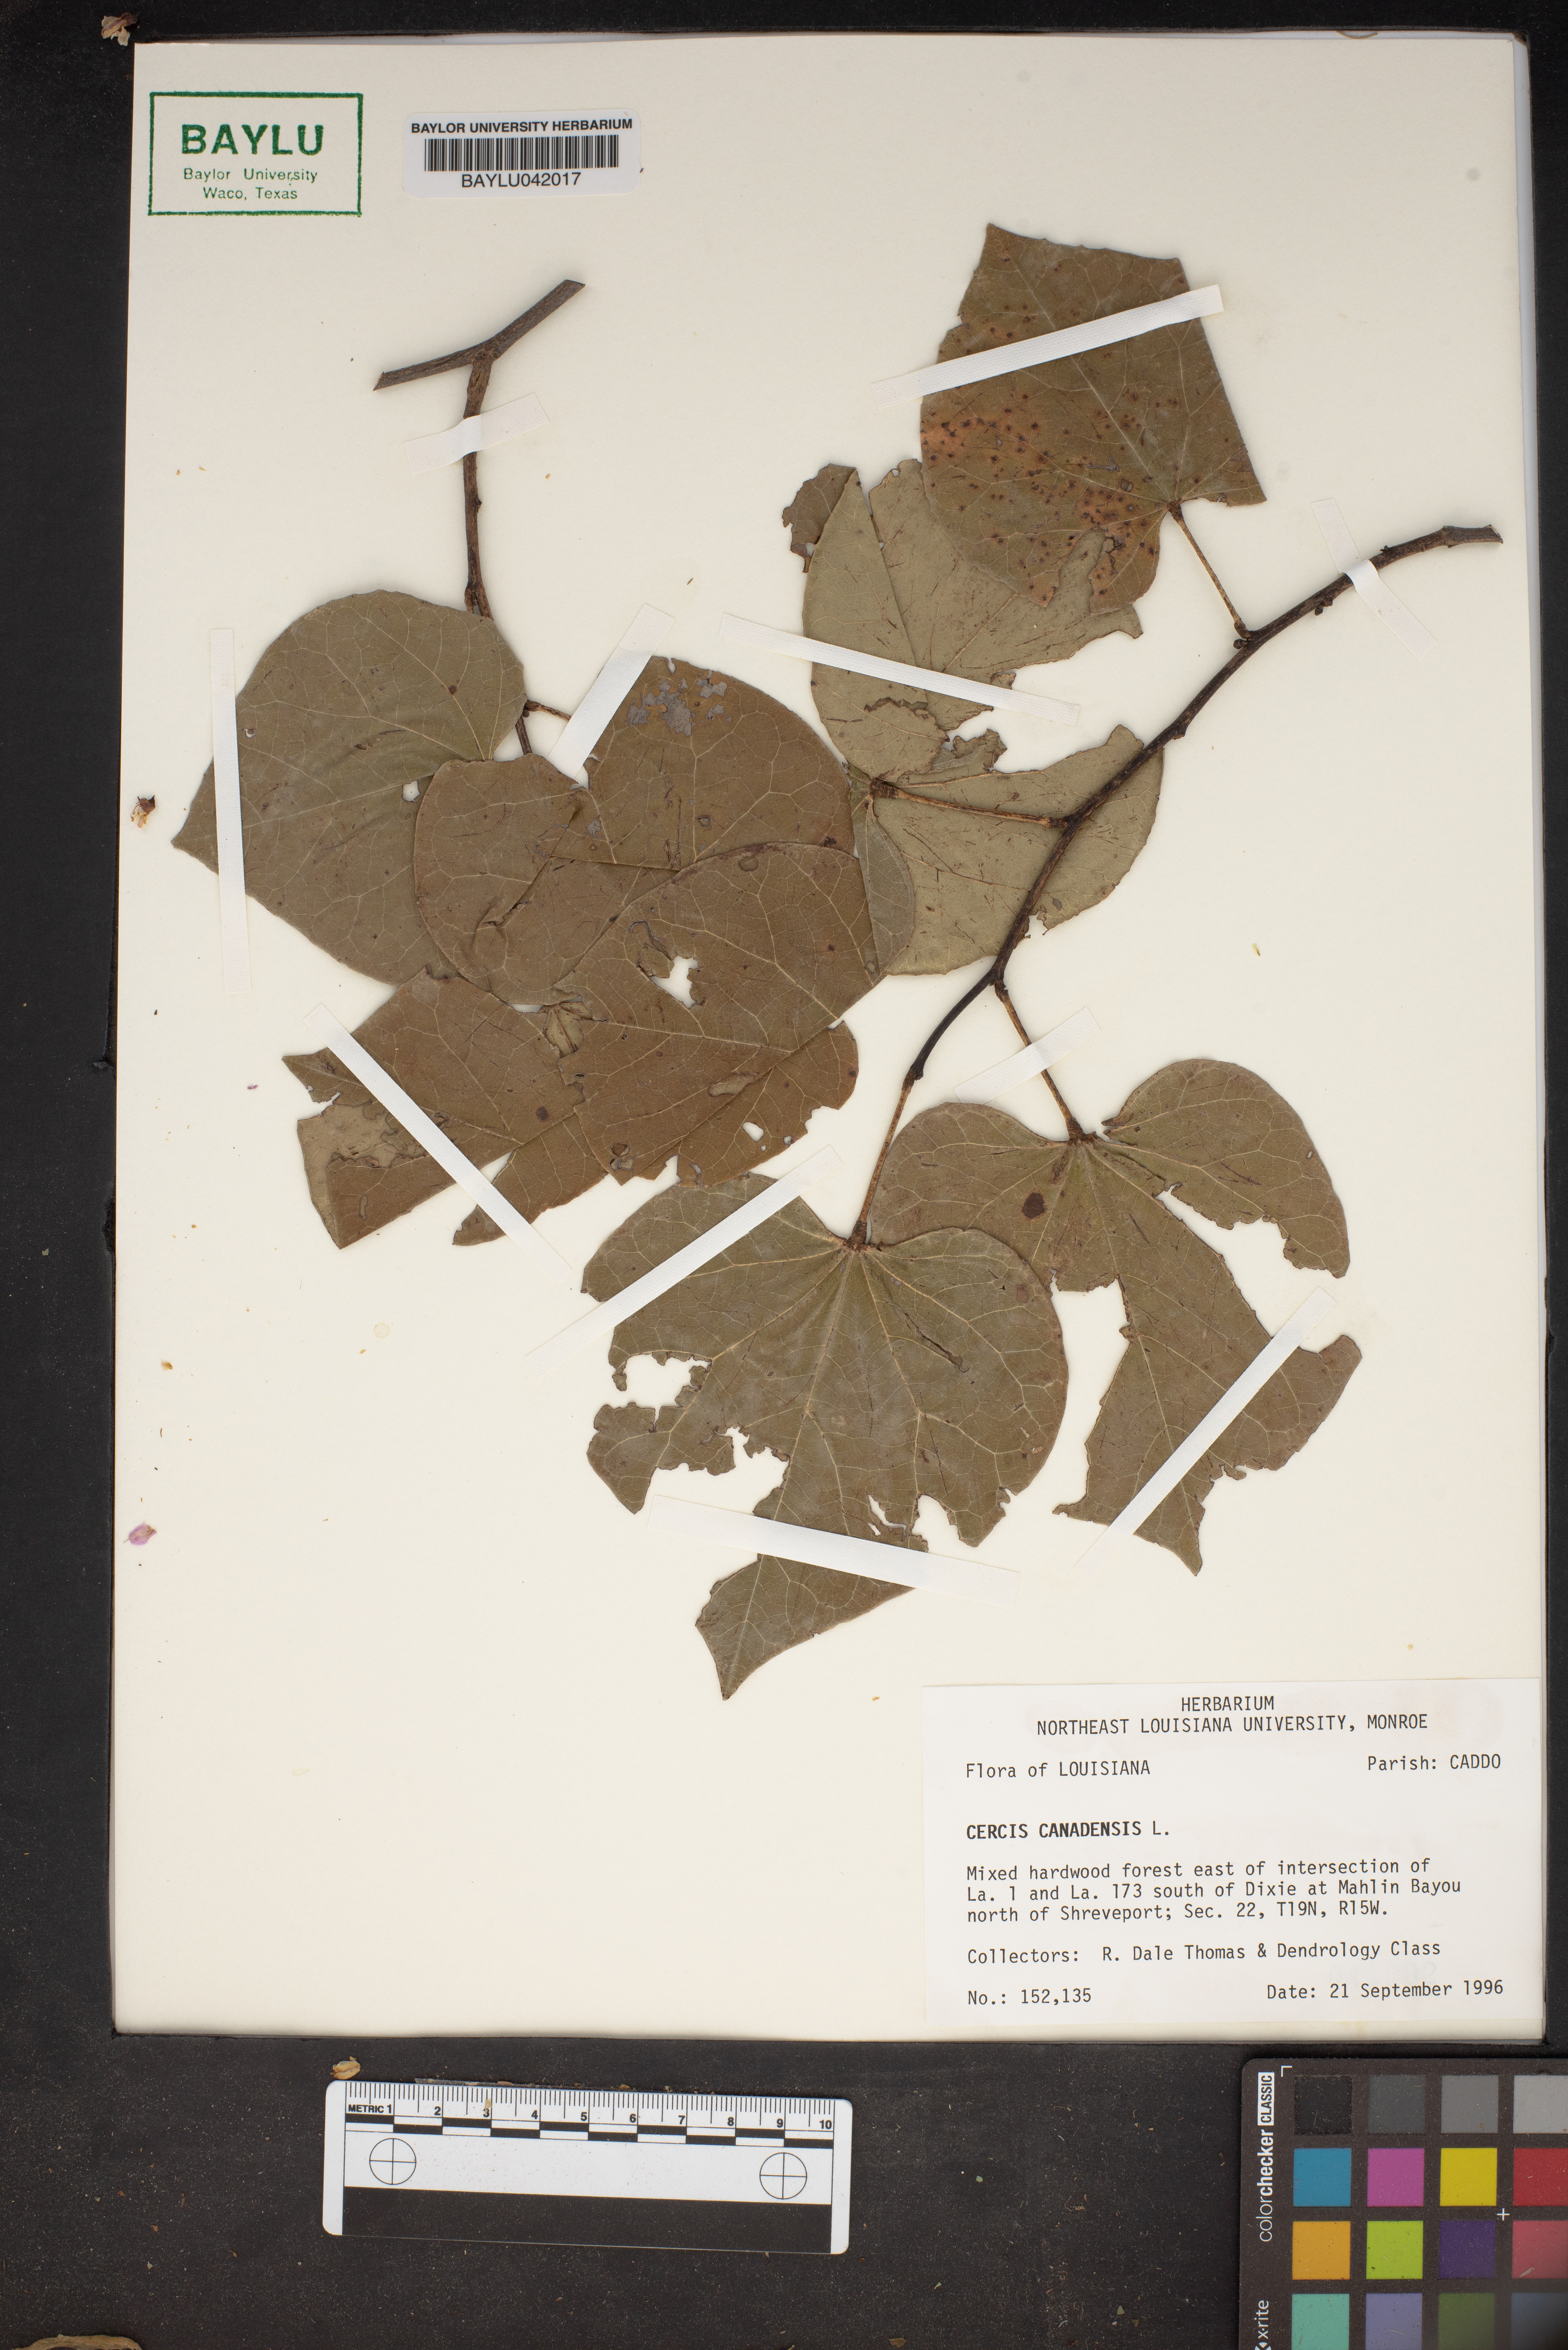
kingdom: Plantae
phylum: Tracheophyta
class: Magnoliopsida
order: Fabales
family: Fabaceae
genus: Cercis
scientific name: Cercis canadensis
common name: Eastern redbud
